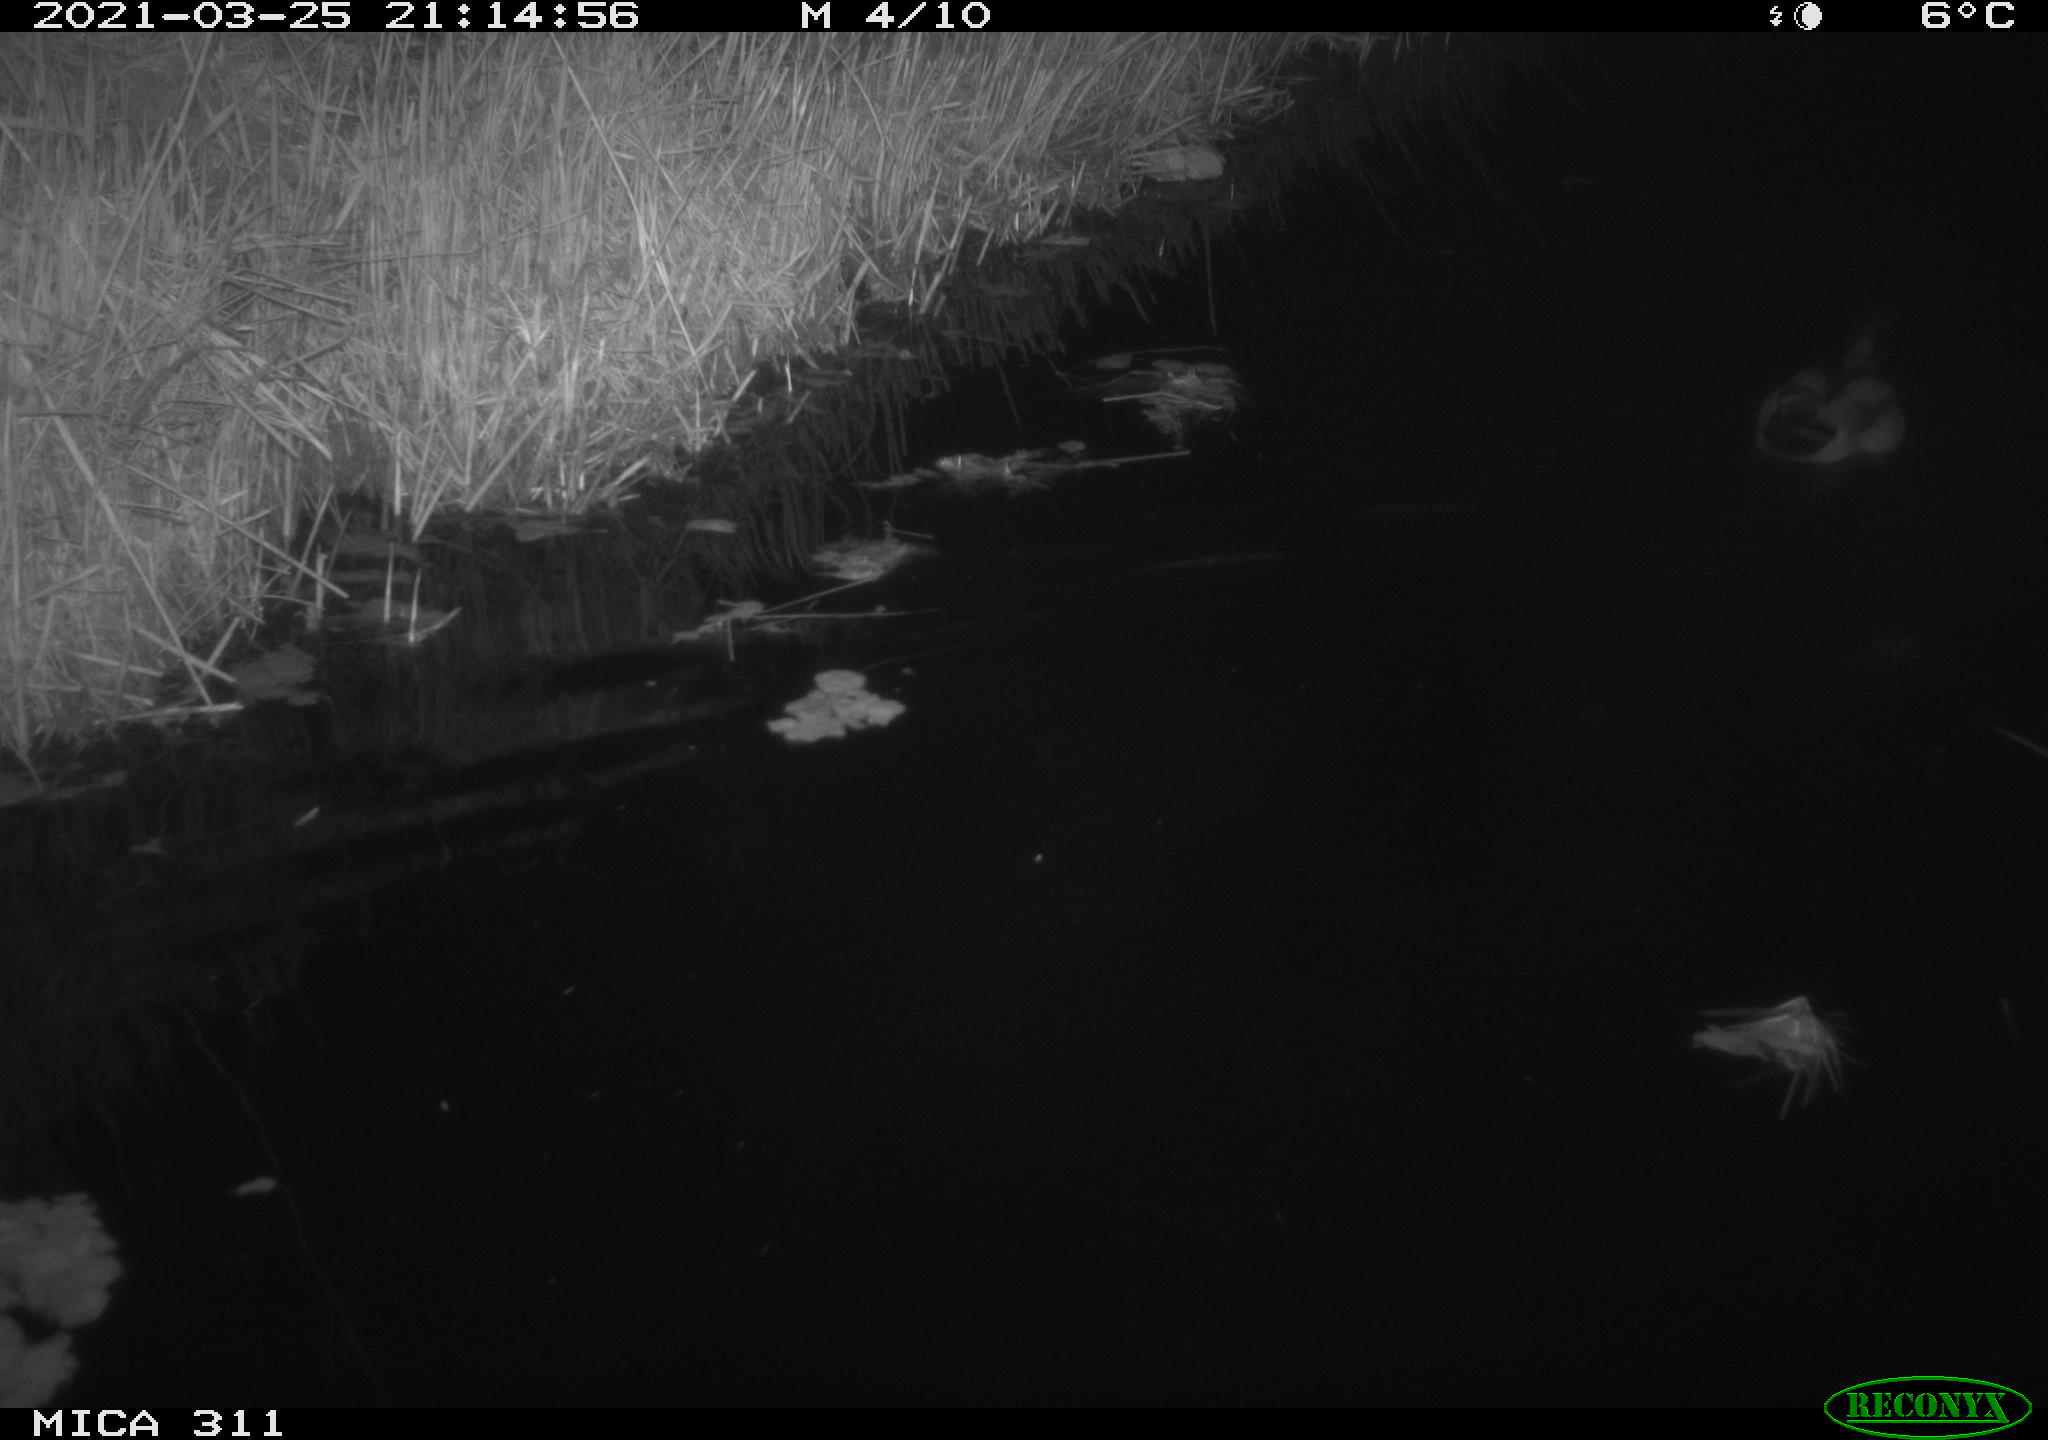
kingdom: Animalia
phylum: Chordata
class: Aves
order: Anseriformes
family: Anatidae
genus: Anas
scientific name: Anas platyrhynchos
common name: Mallard
